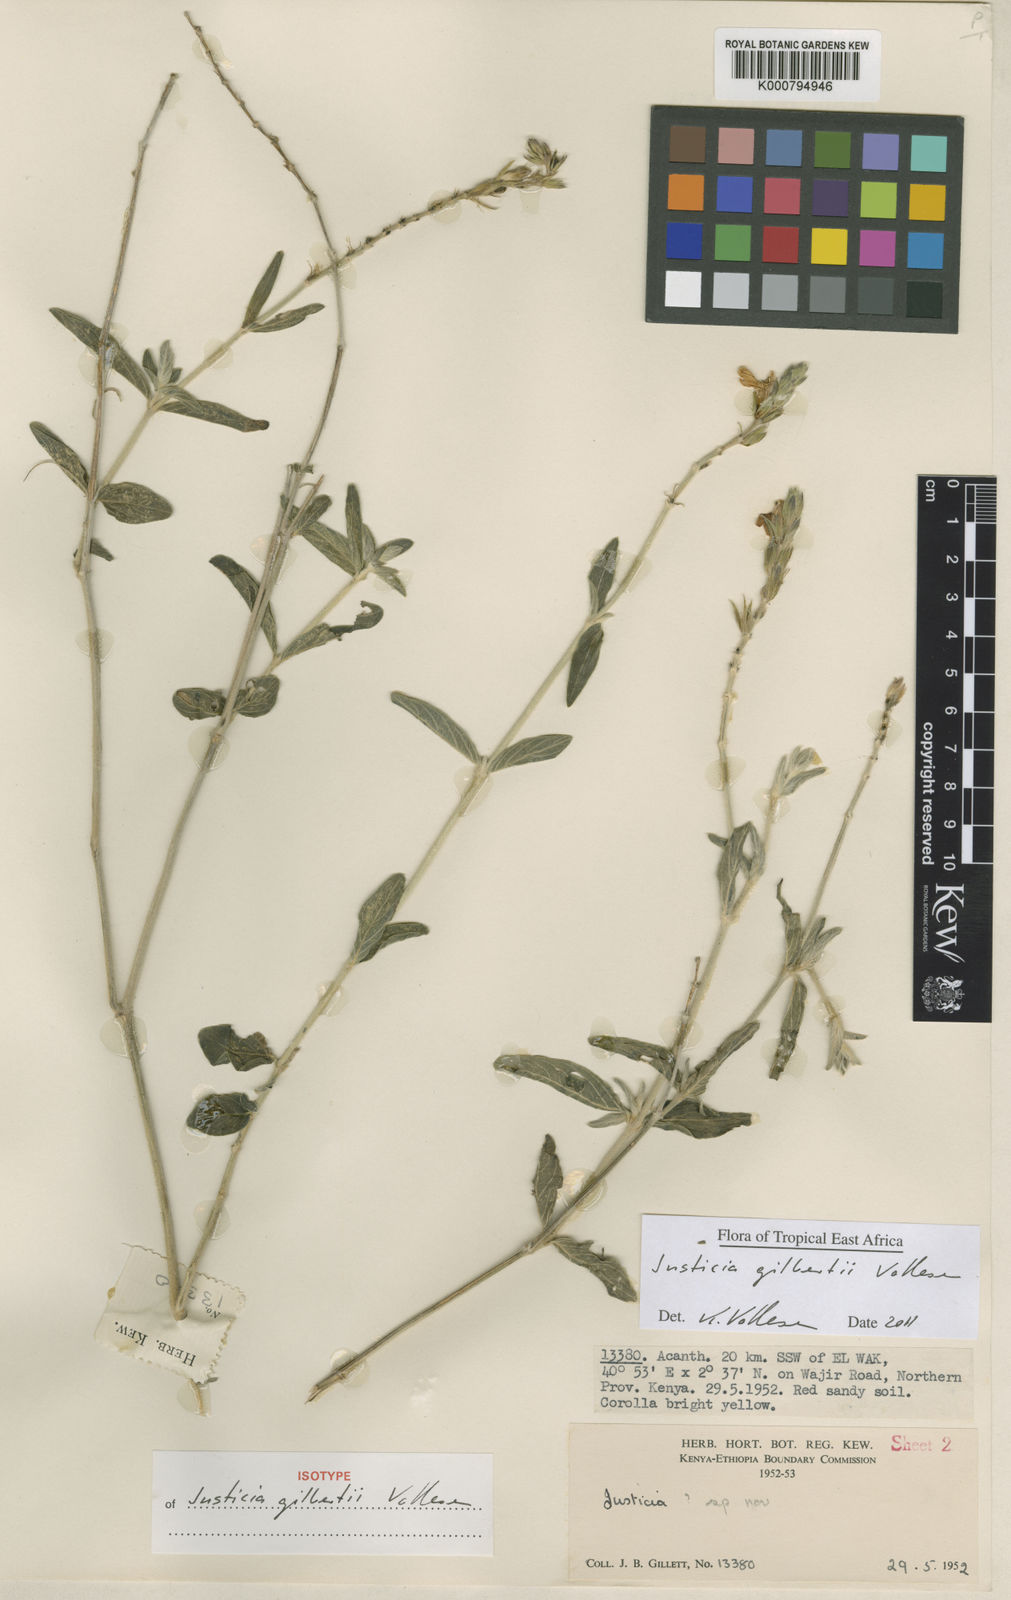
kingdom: Plantae
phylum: Tracheophyta
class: Magnoliopsida
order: Lamiales
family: Acanthaceae
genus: Justicia
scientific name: Justicia gilbertii
